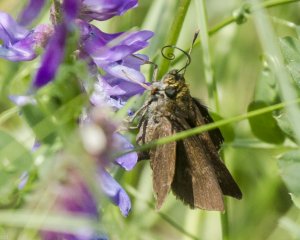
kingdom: Animalia
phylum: Arthropoda
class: Insecta
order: Lepidoptera
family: Hesperiidae
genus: Euphyes
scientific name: Euphyes vestris
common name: Dun Skipper
